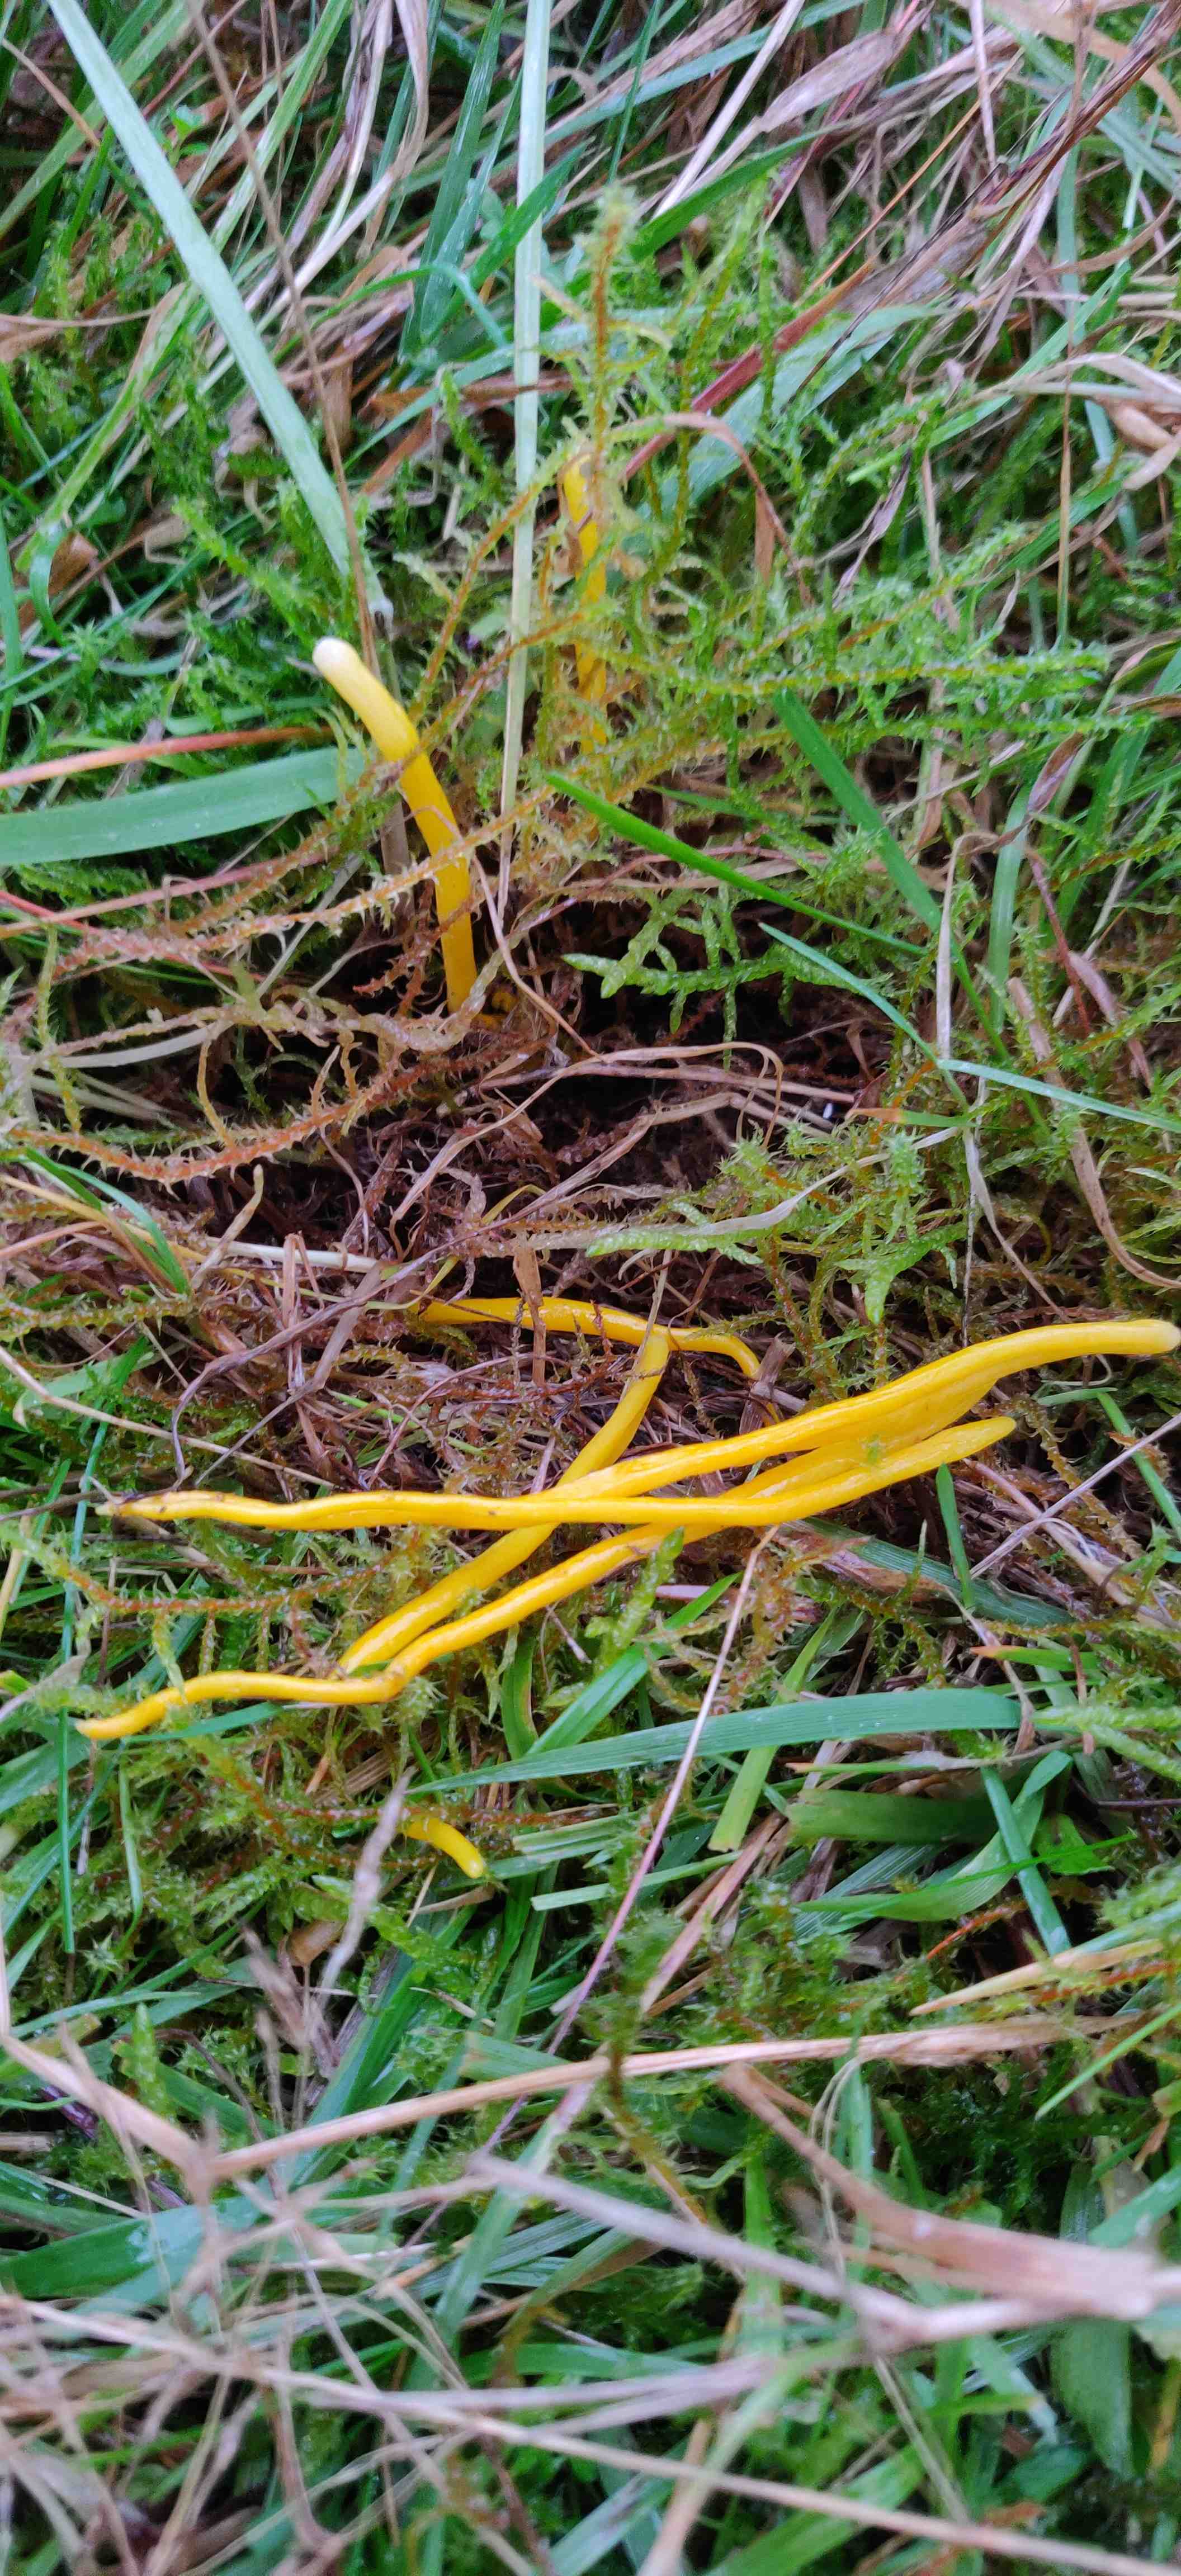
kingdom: Fungi
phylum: Basidiomycota
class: Agaricomycetes
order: Agaricales
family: Clavariaceae
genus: Clavulinopsis
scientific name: Clavulinopsis
